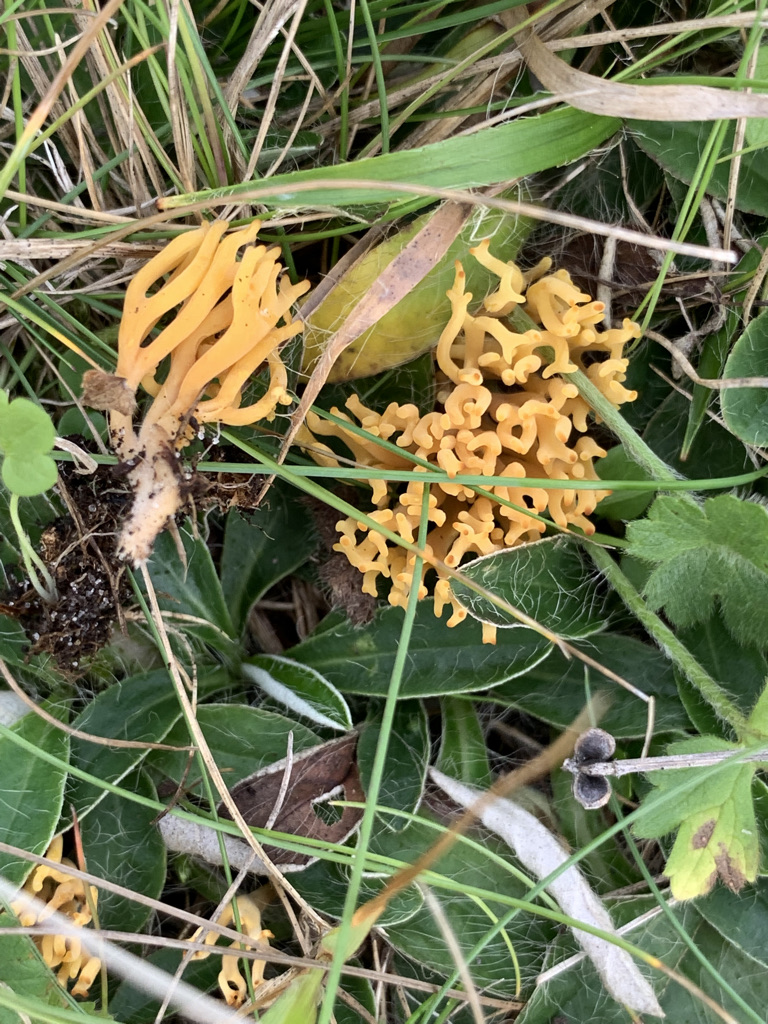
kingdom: Fungi
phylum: Basidiomycota
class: Agaricomycetes
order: Agaricales
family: Clavariaceae
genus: Clavulinopsis
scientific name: Clavulinopsis corniculata
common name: eng-køllesvamp
